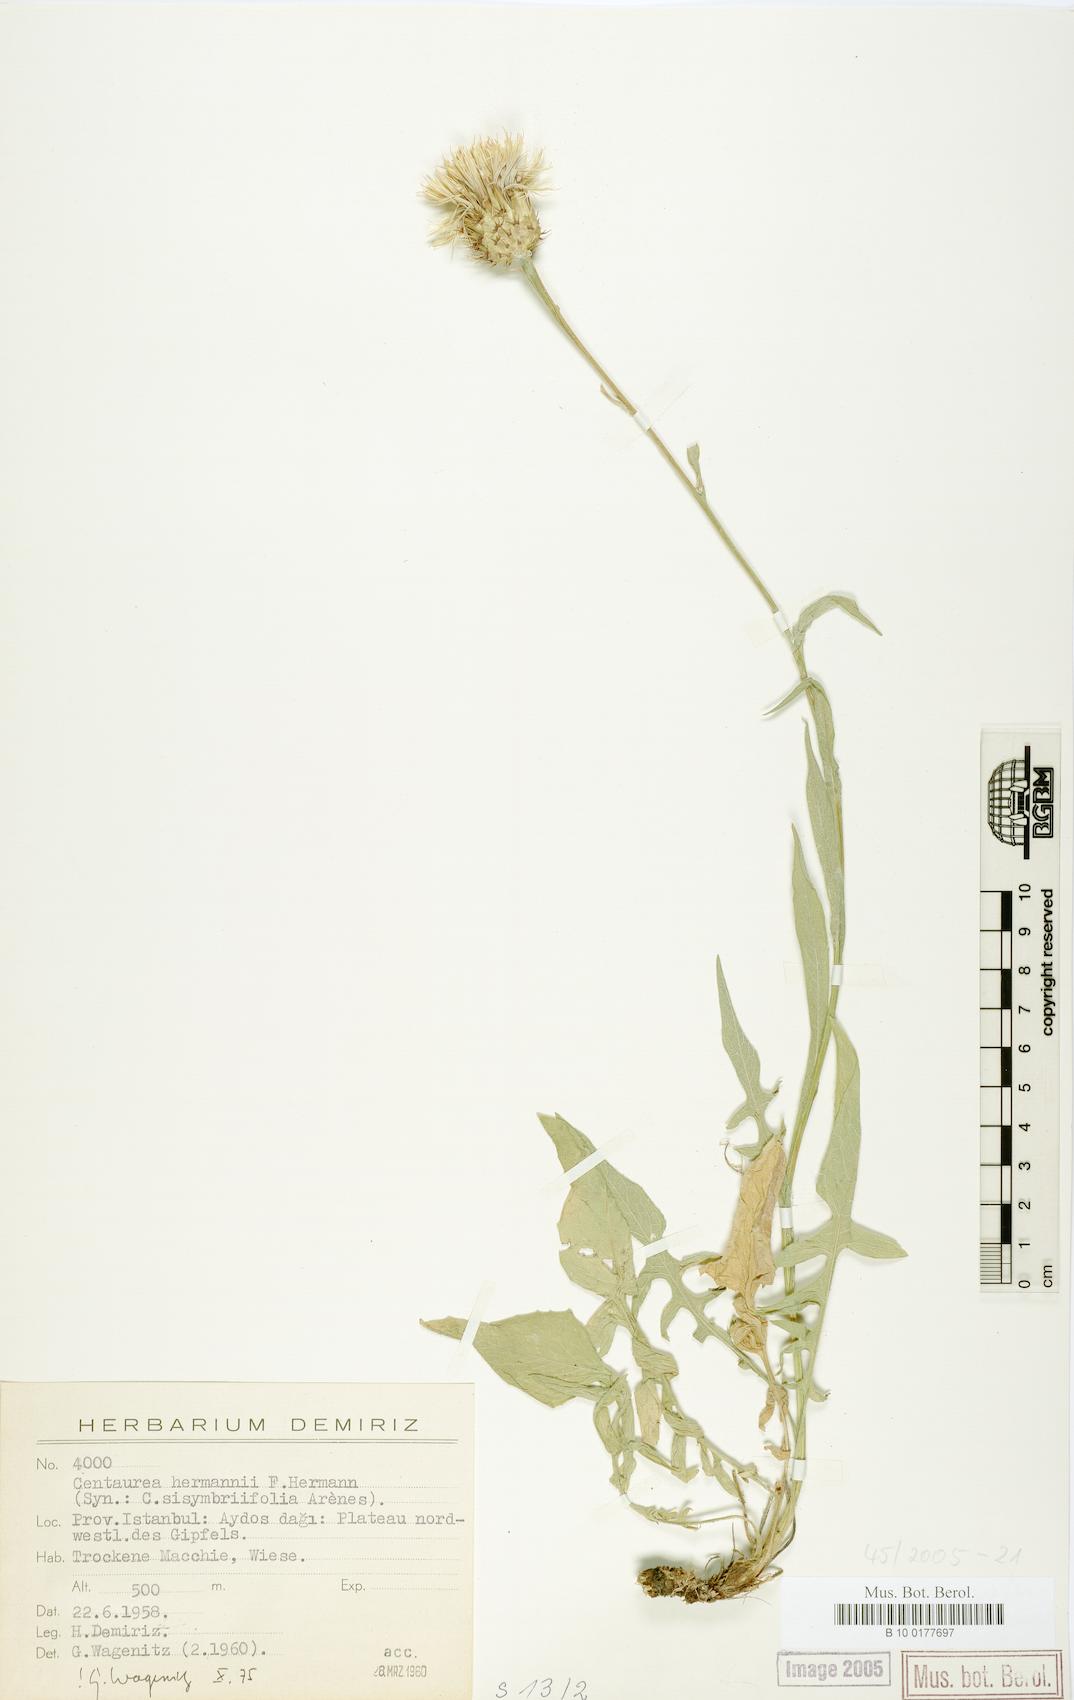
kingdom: Plantae
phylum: Tracheophyta
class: Magnoliopsida
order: Asterales
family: Asteraceae
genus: Centaurea
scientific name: Centaurea hermannii
